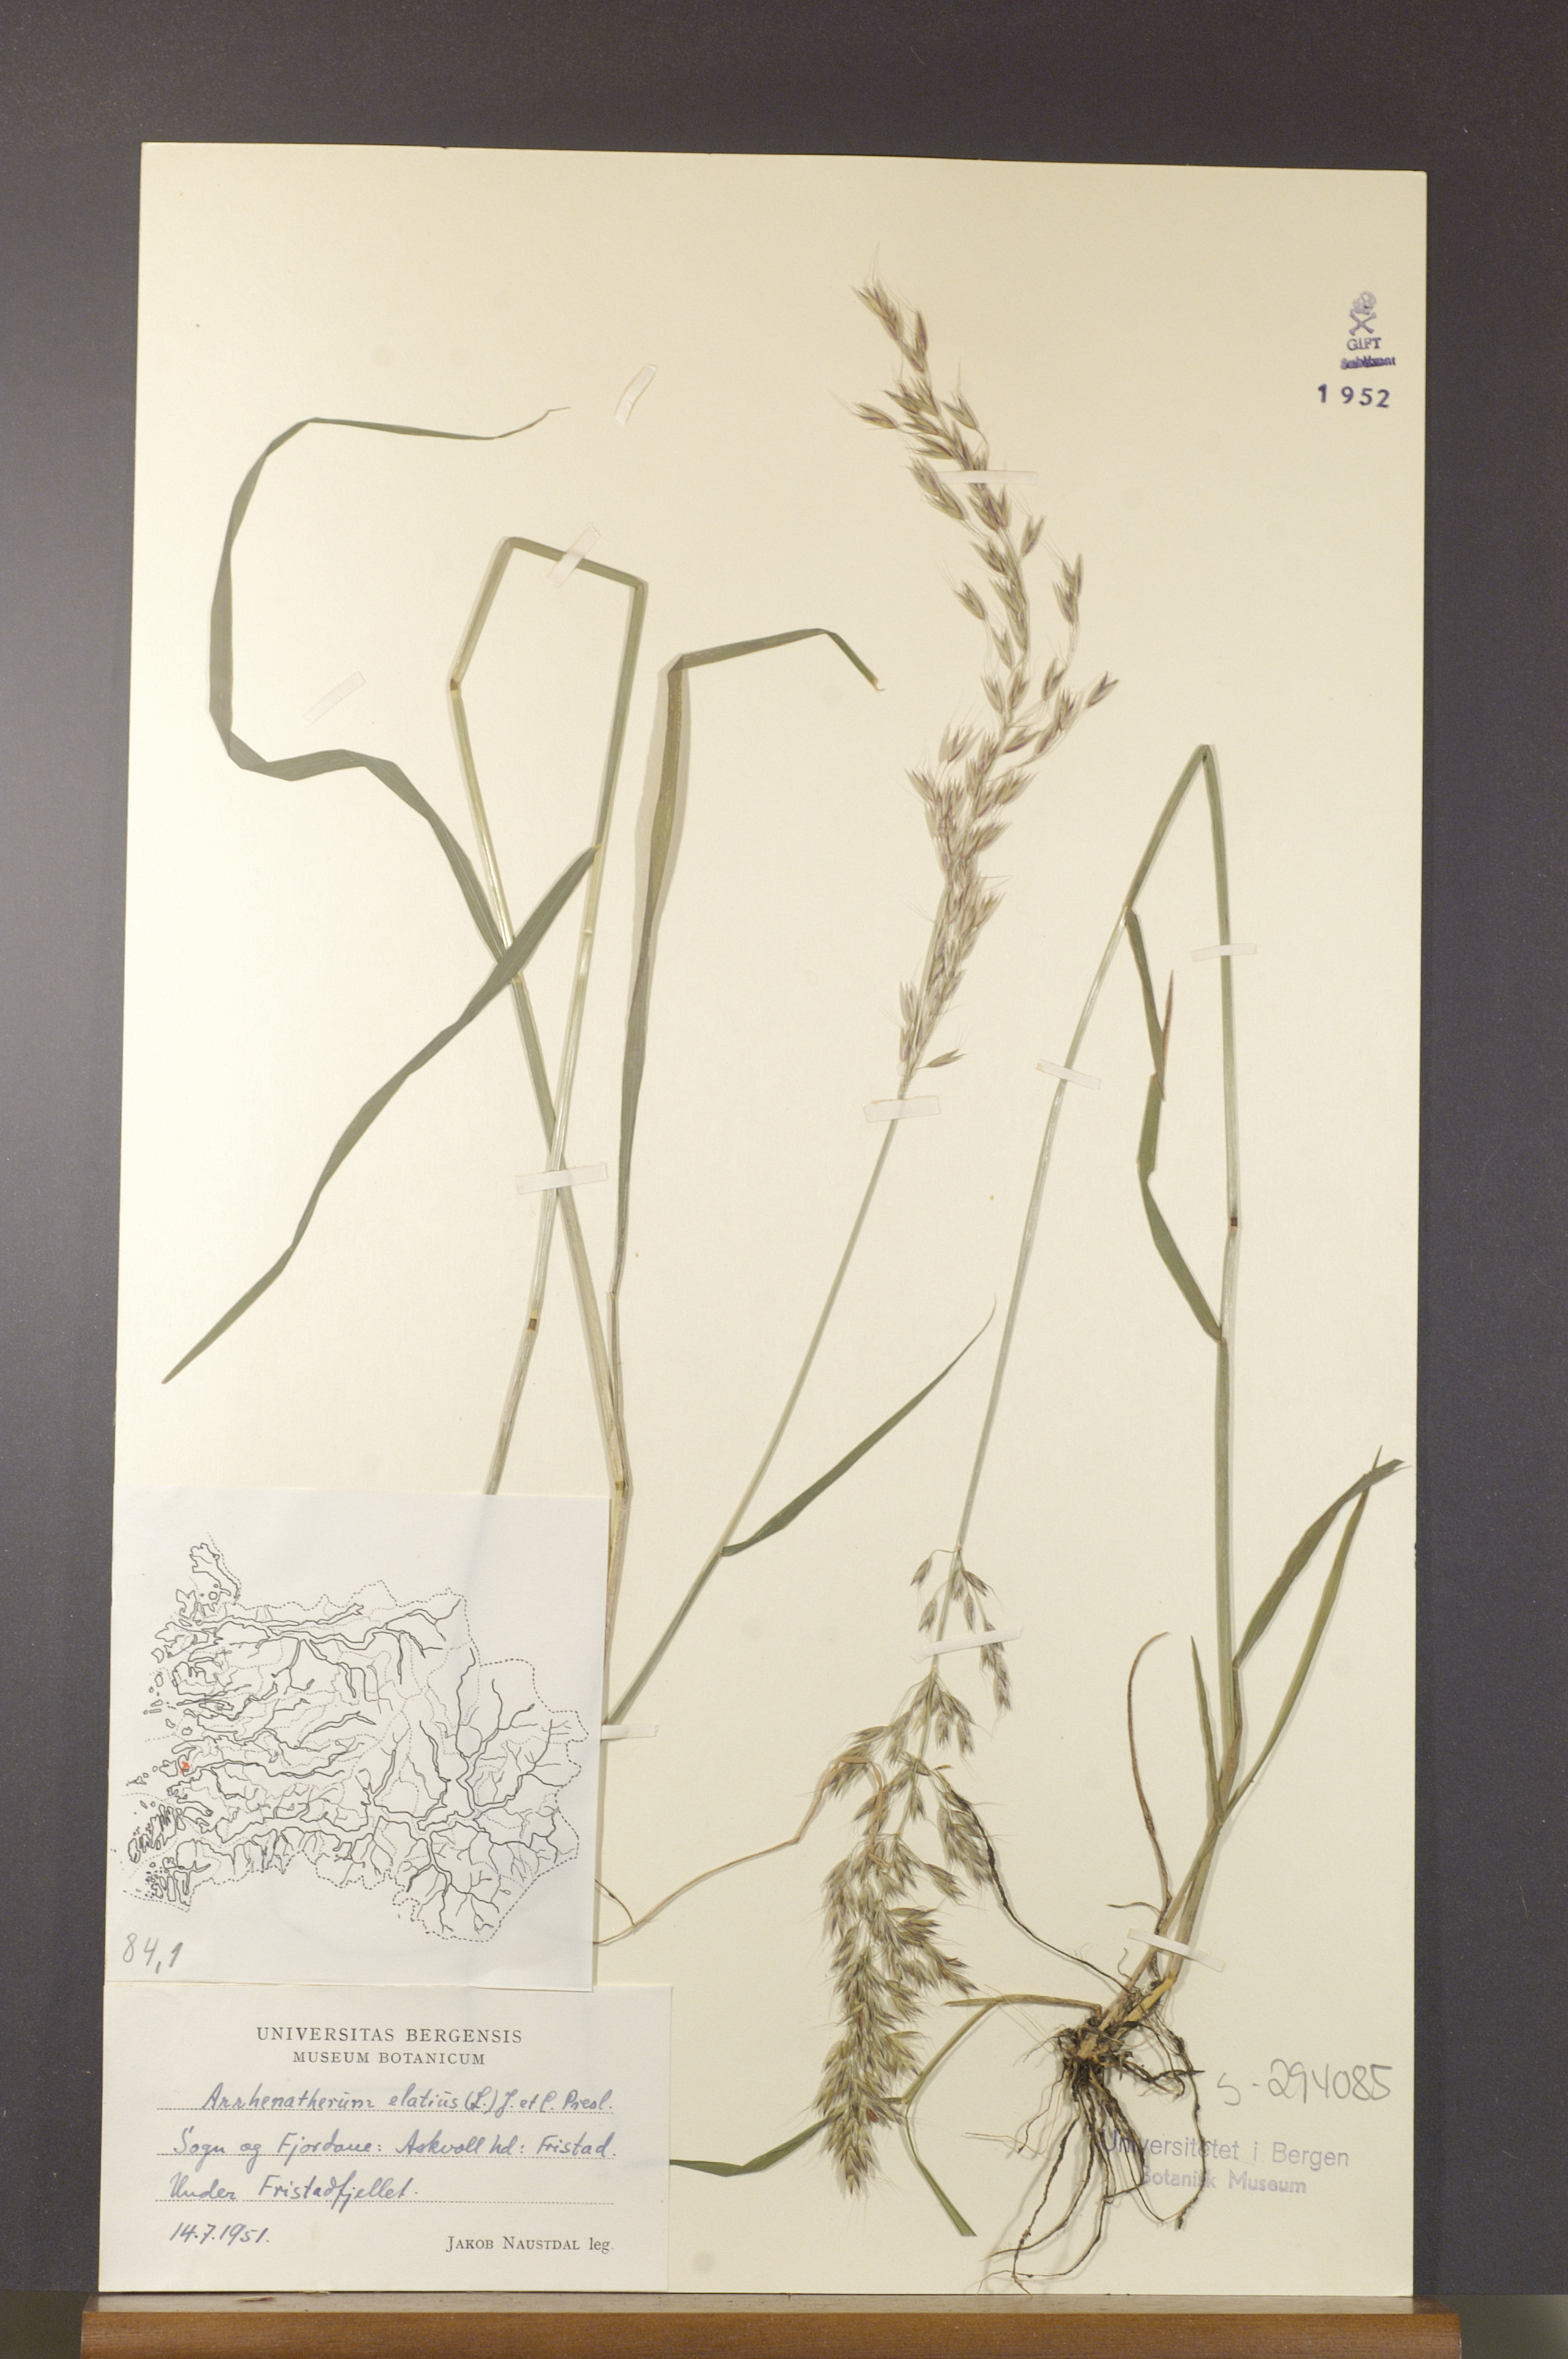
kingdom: Plantae
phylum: Tracheophyta
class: Liliopsida
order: Poales
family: Poaceae
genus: Arrhenatherum
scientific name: Arrhenatherum elatius
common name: Tall oatgrass
